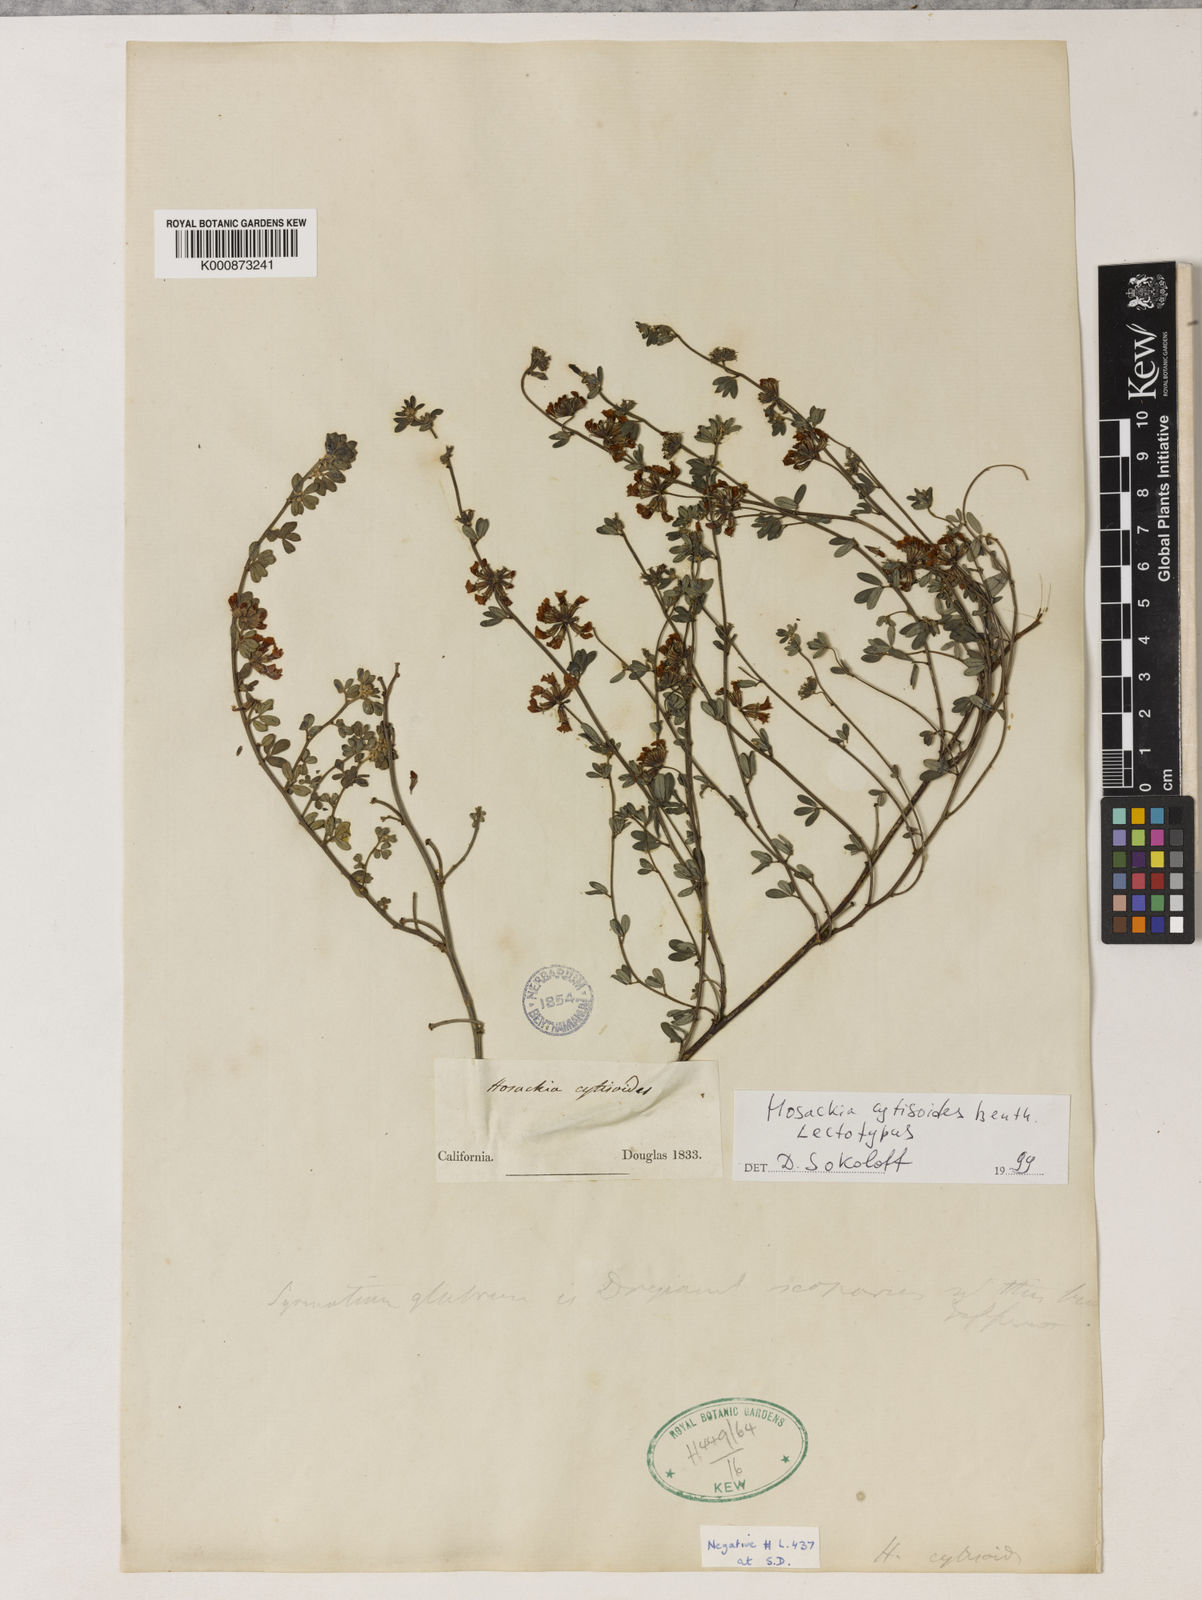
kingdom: Plantae
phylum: Tracheophyta
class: Magnoliopsida
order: Fabales
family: Fabaceae
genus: Acmispon
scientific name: Acmispon cytisoides
